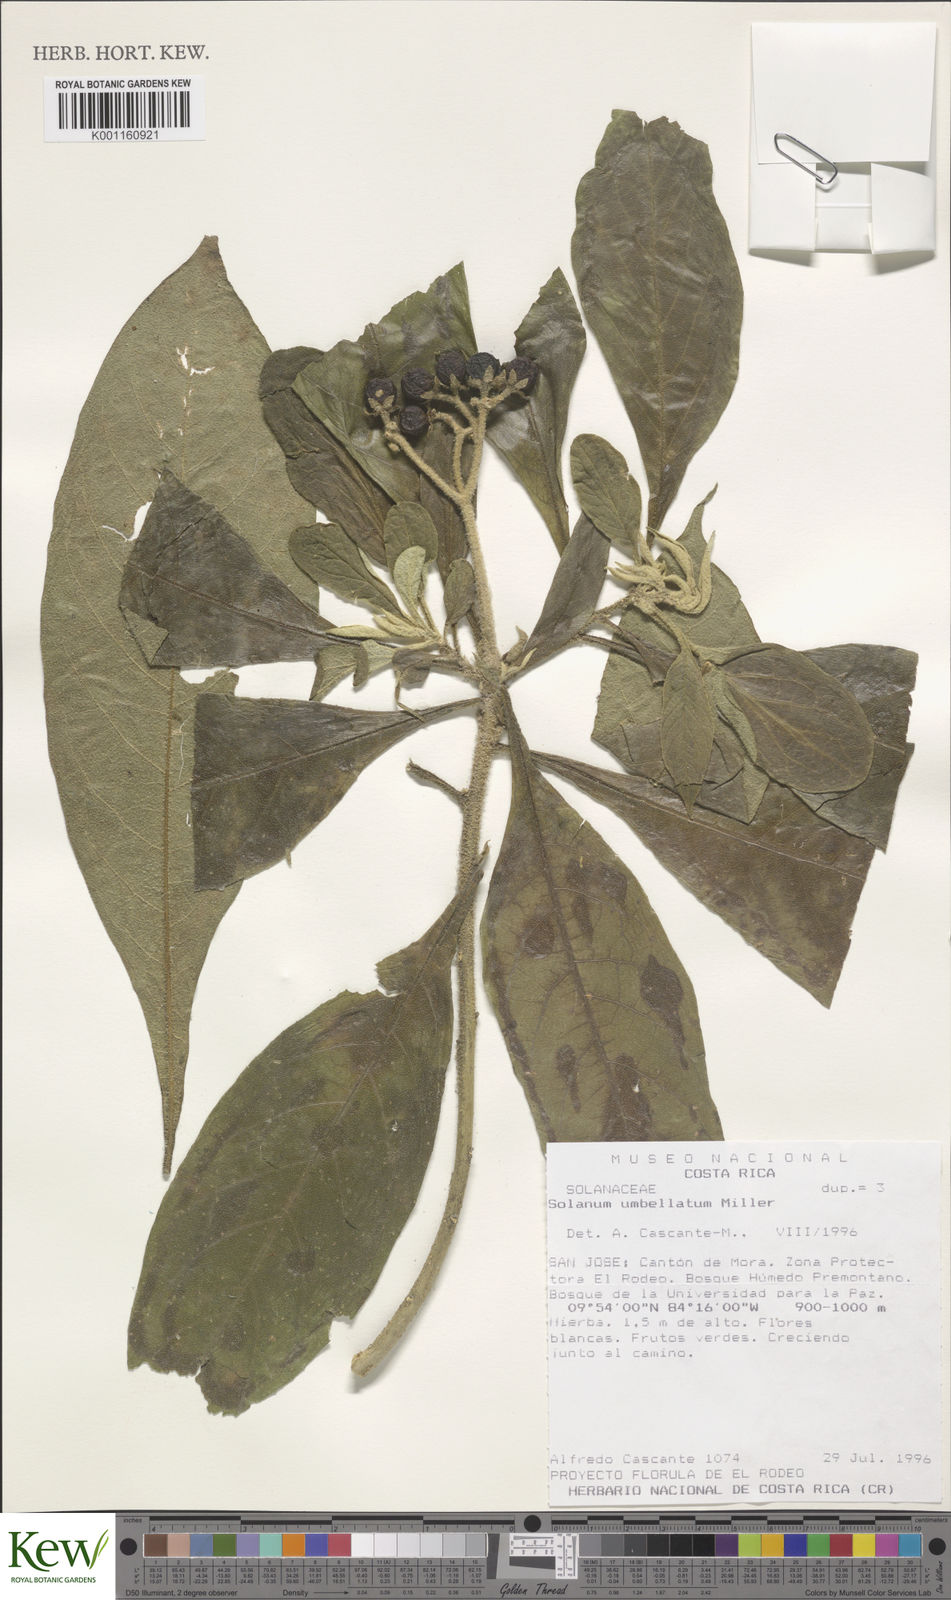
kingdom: Plantae
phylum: Tracheophyta
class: Magnoliopsida
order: Solanales
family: Solanaceae
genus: Solanum
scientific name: Solanum umbellatum
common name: Nightshade
